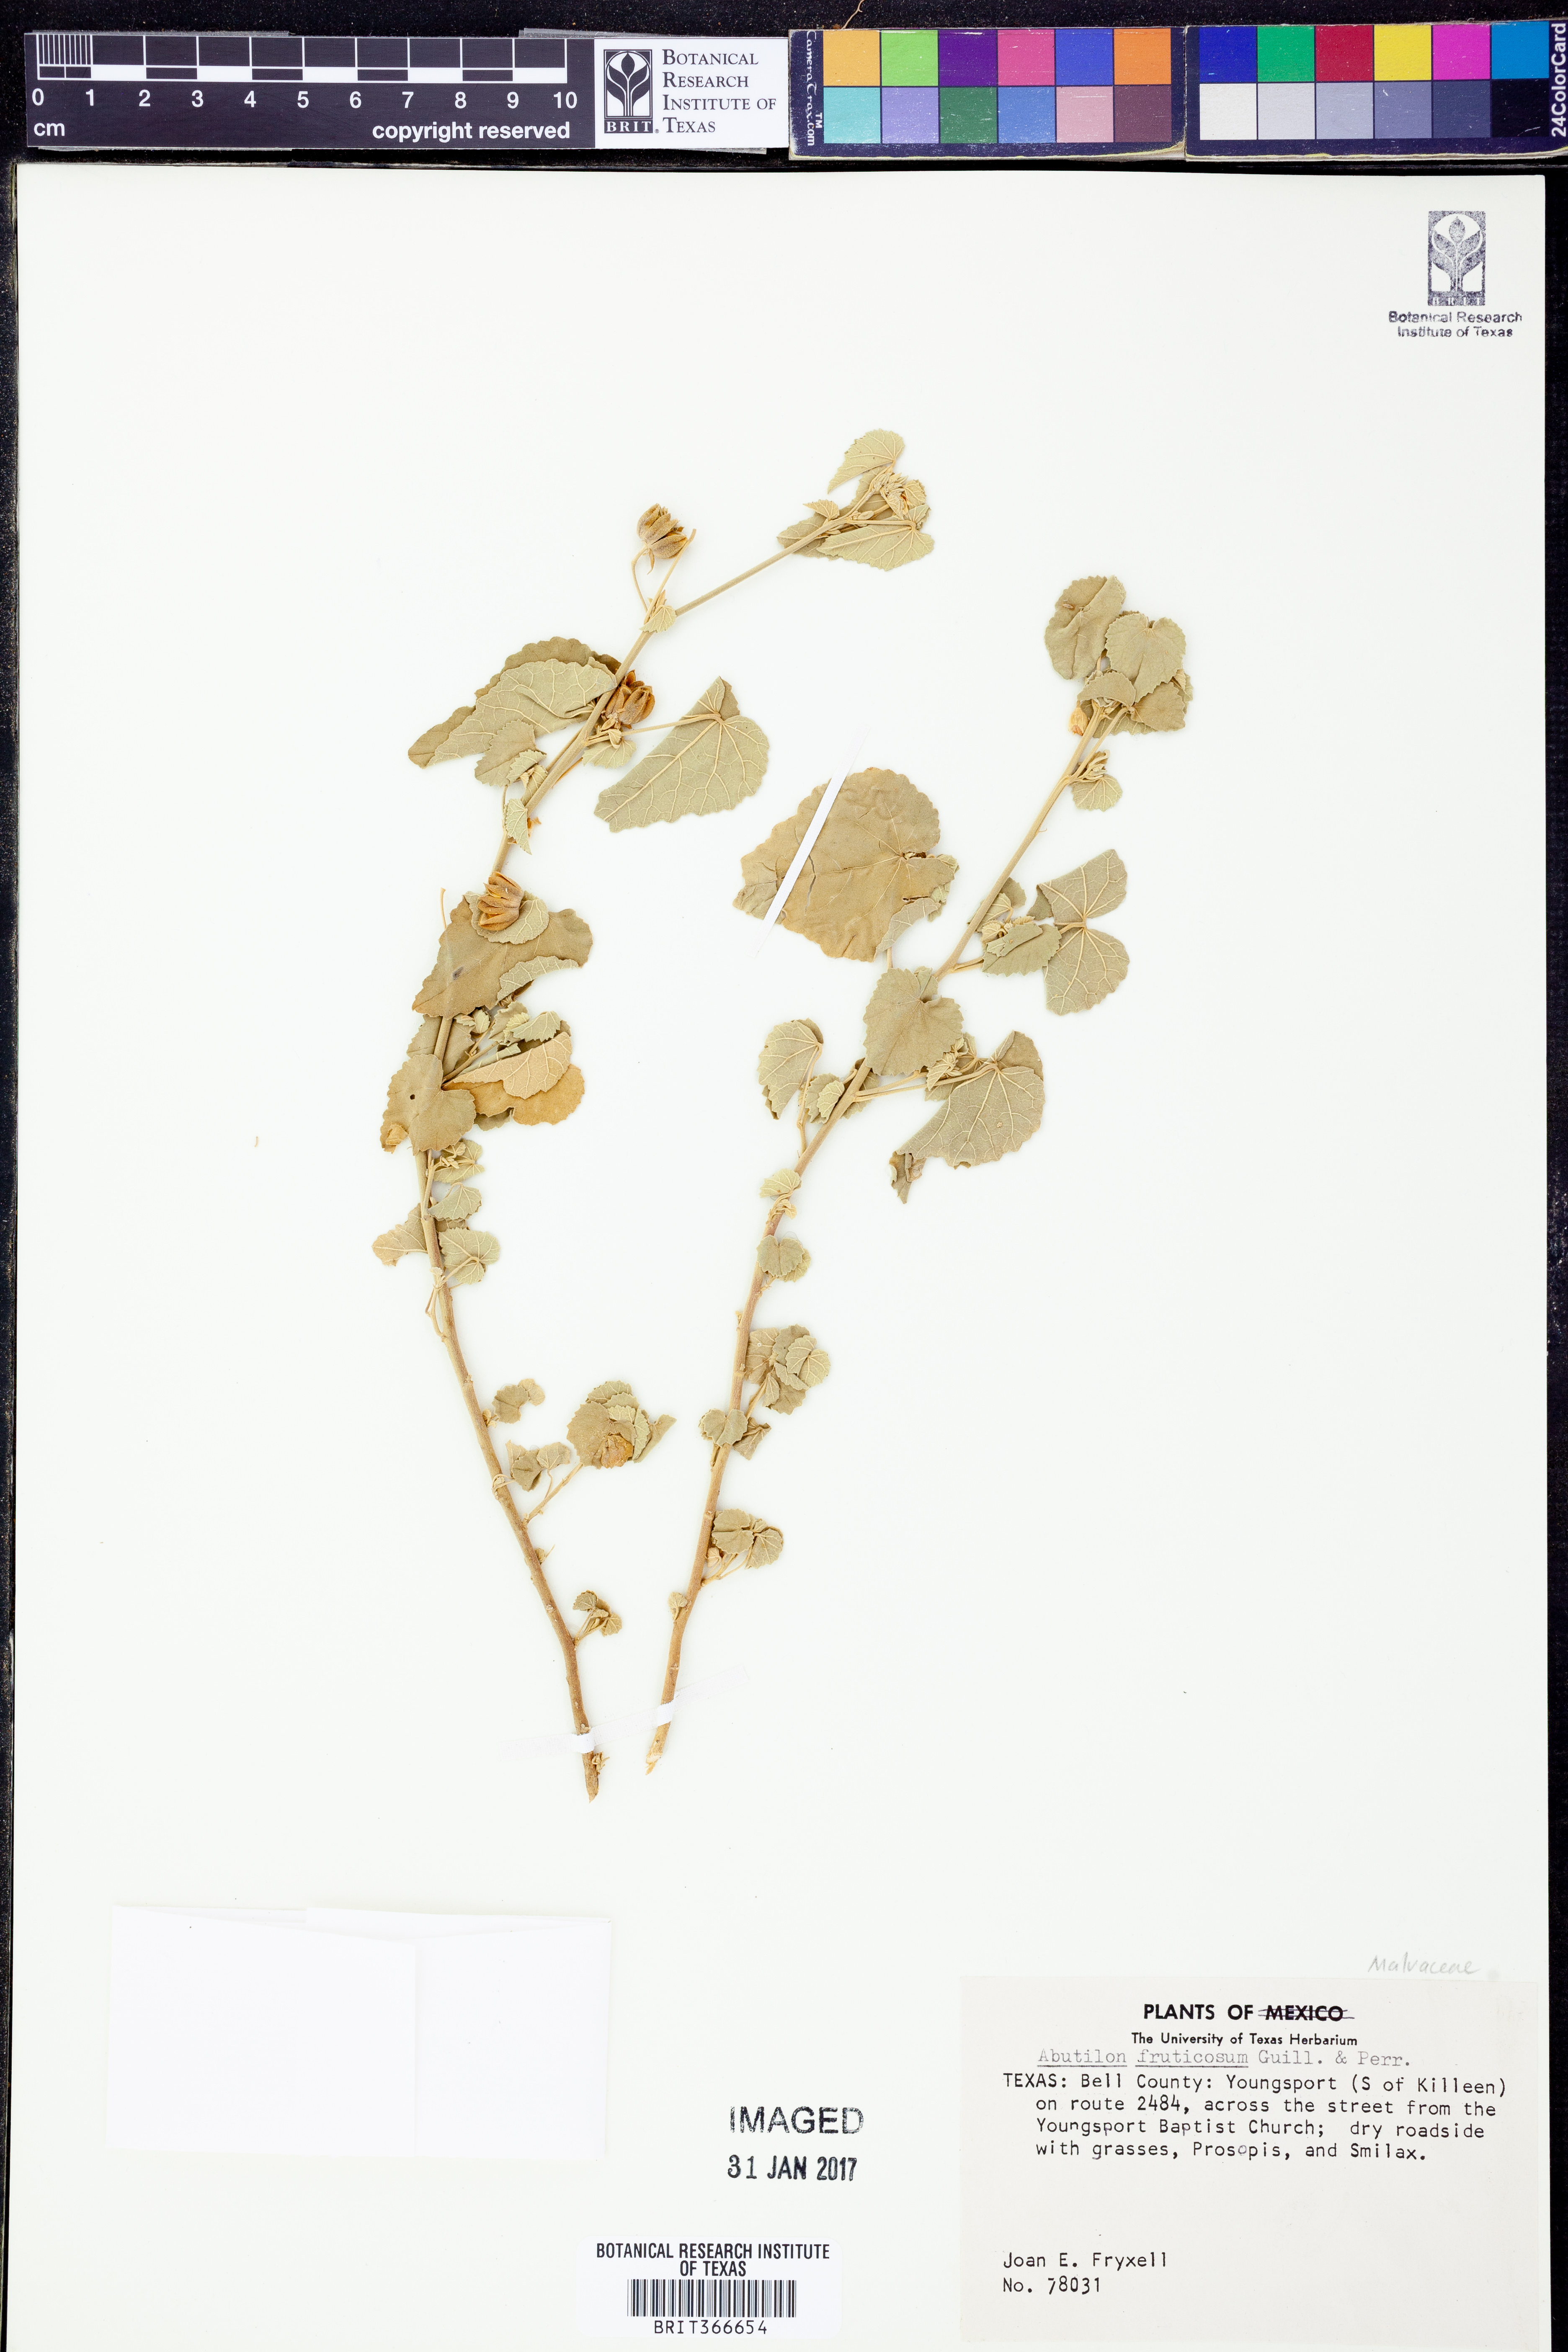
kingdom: Plantae
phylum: Tracheophyta
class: Magnoliopsida
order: Malvales
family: Malvaceae
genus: Abutilon
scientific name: Abutilon fruticosum
